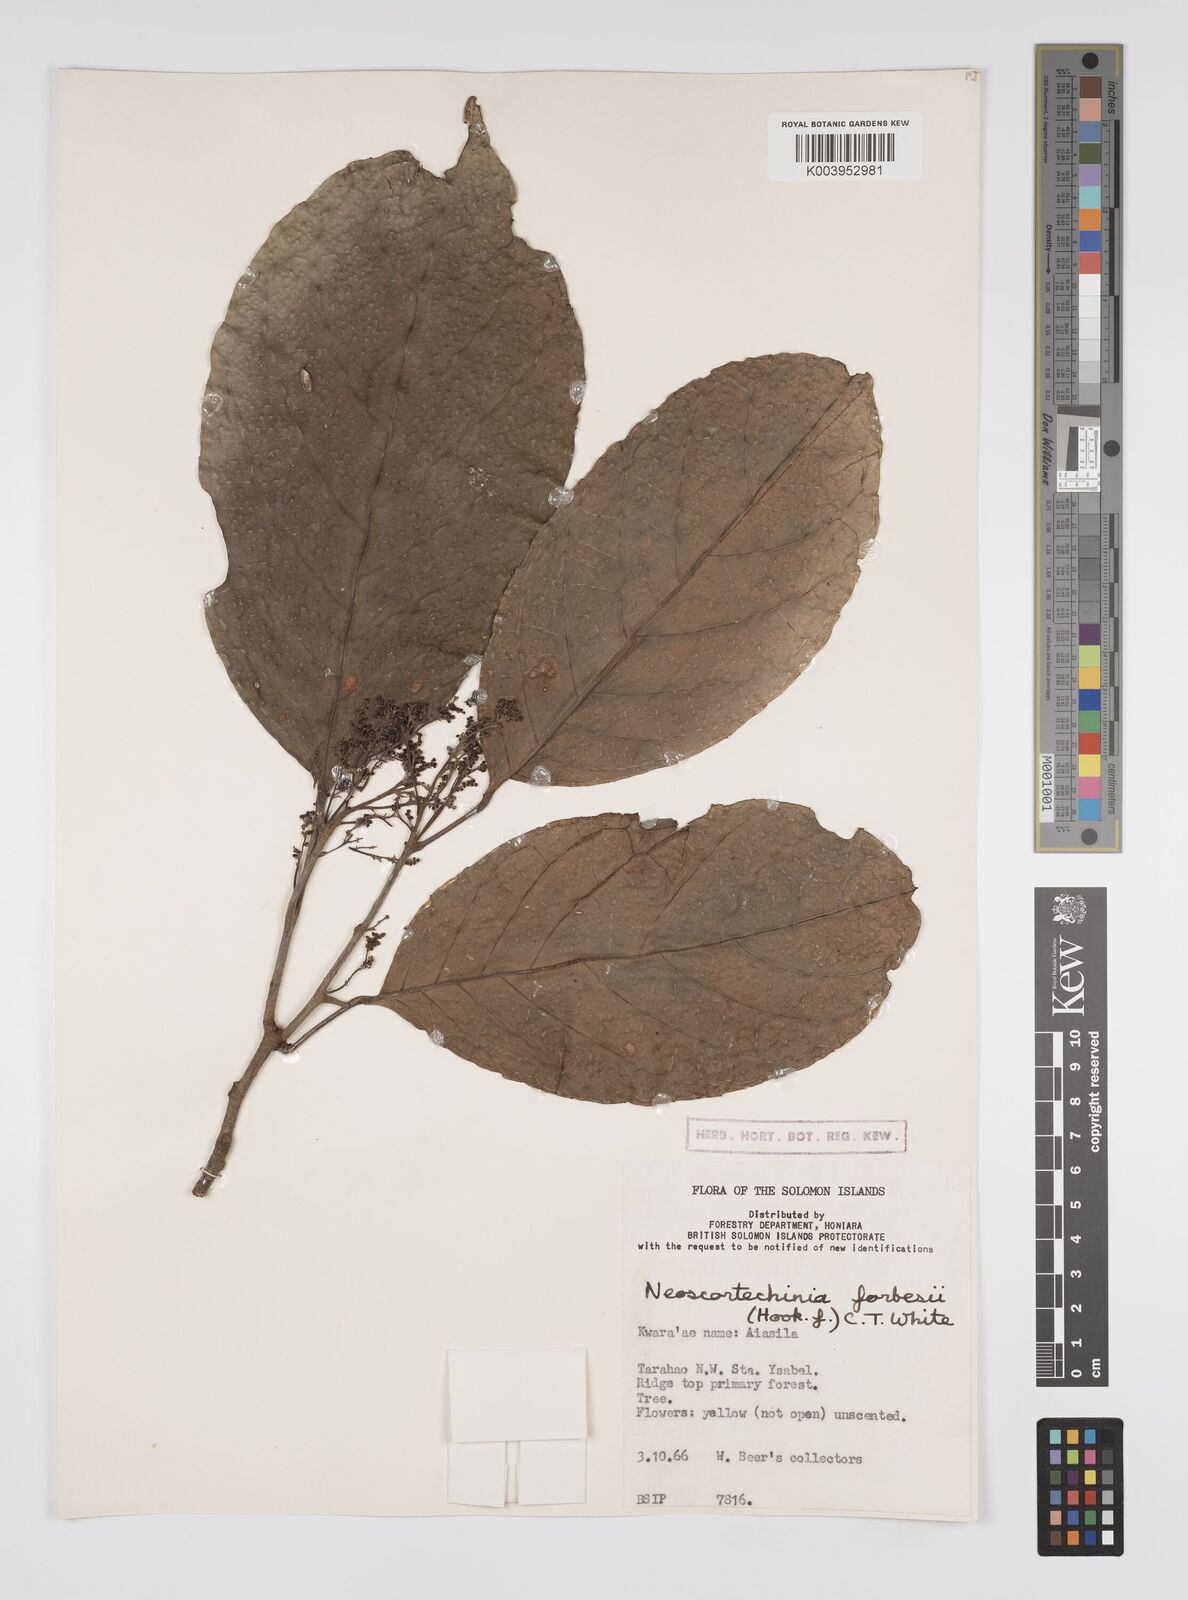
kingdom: Plantae
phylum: Tracheophyta
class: Magnoliopsida
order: Malpighiales
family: Euphorbiaceae
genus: Neoscortechinia
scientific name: Neoscortechinia forbesii
